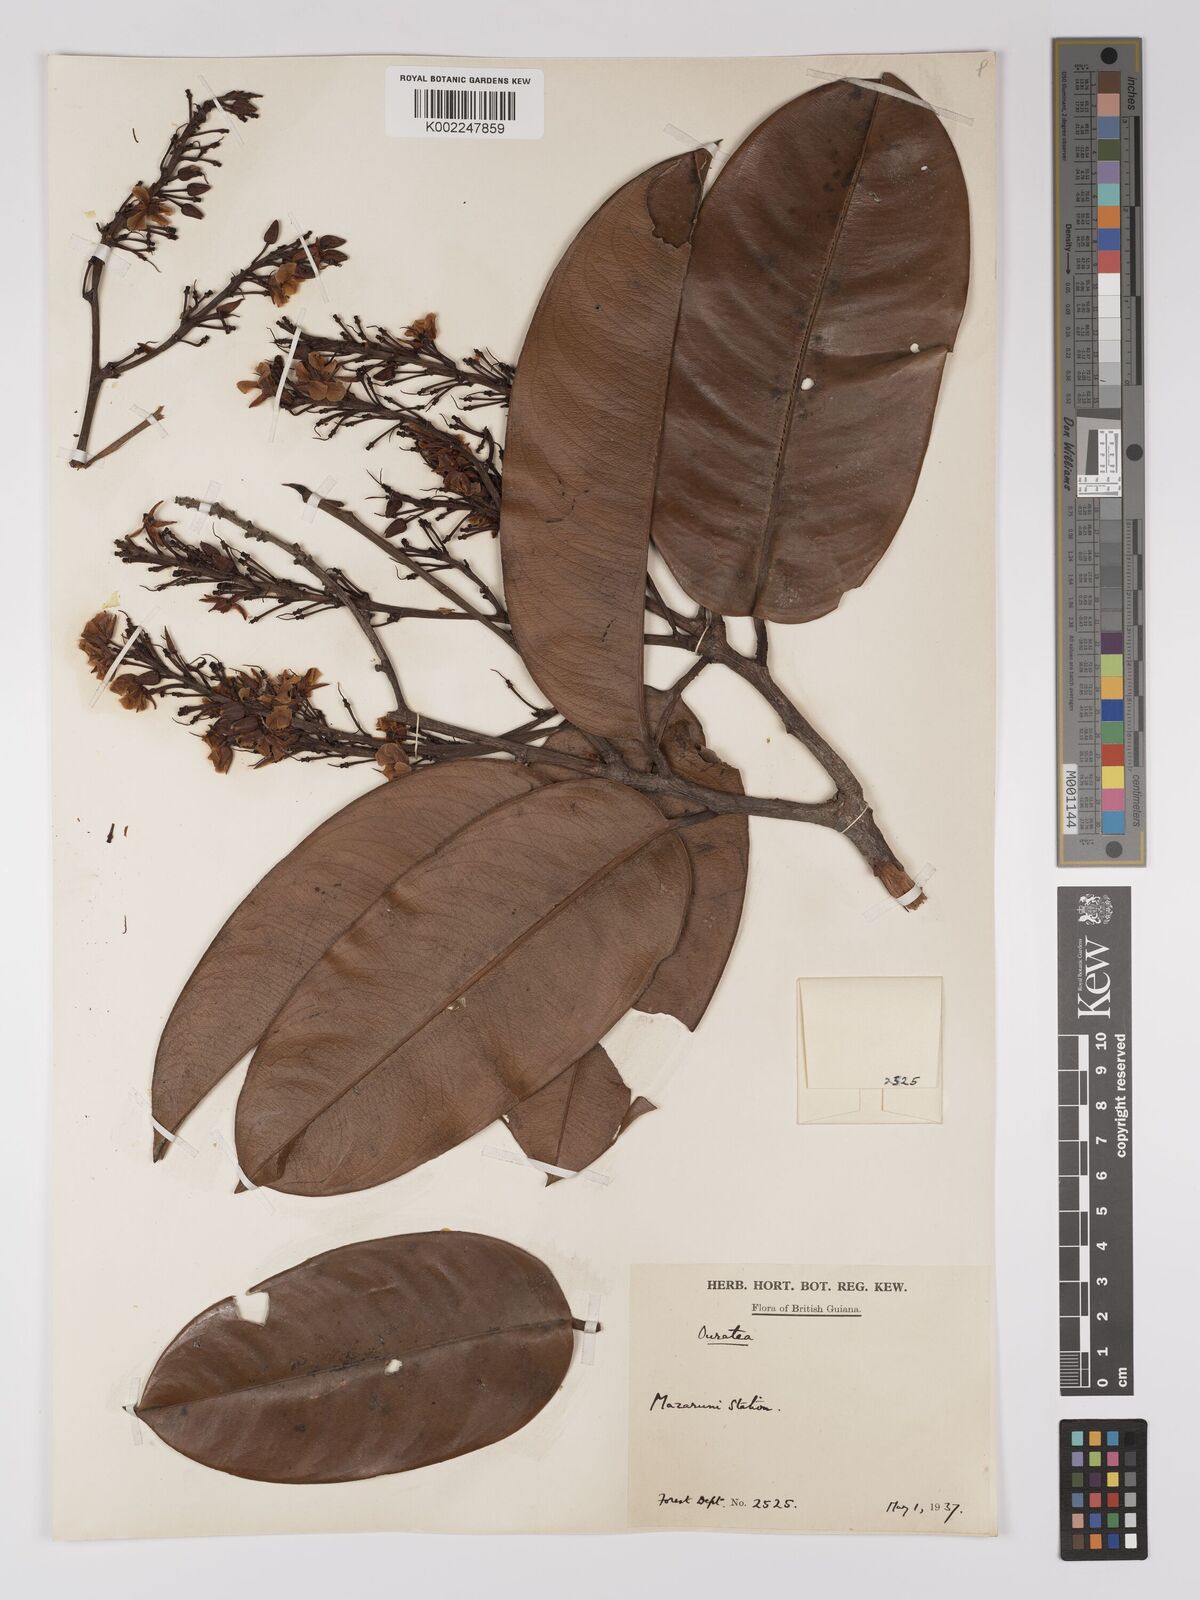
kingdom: Plantae
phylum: Tracheophyta
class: Magnoliopsida
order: Malpighiales
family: Ochnaceae
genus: Ouratea
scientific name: Ouratea
